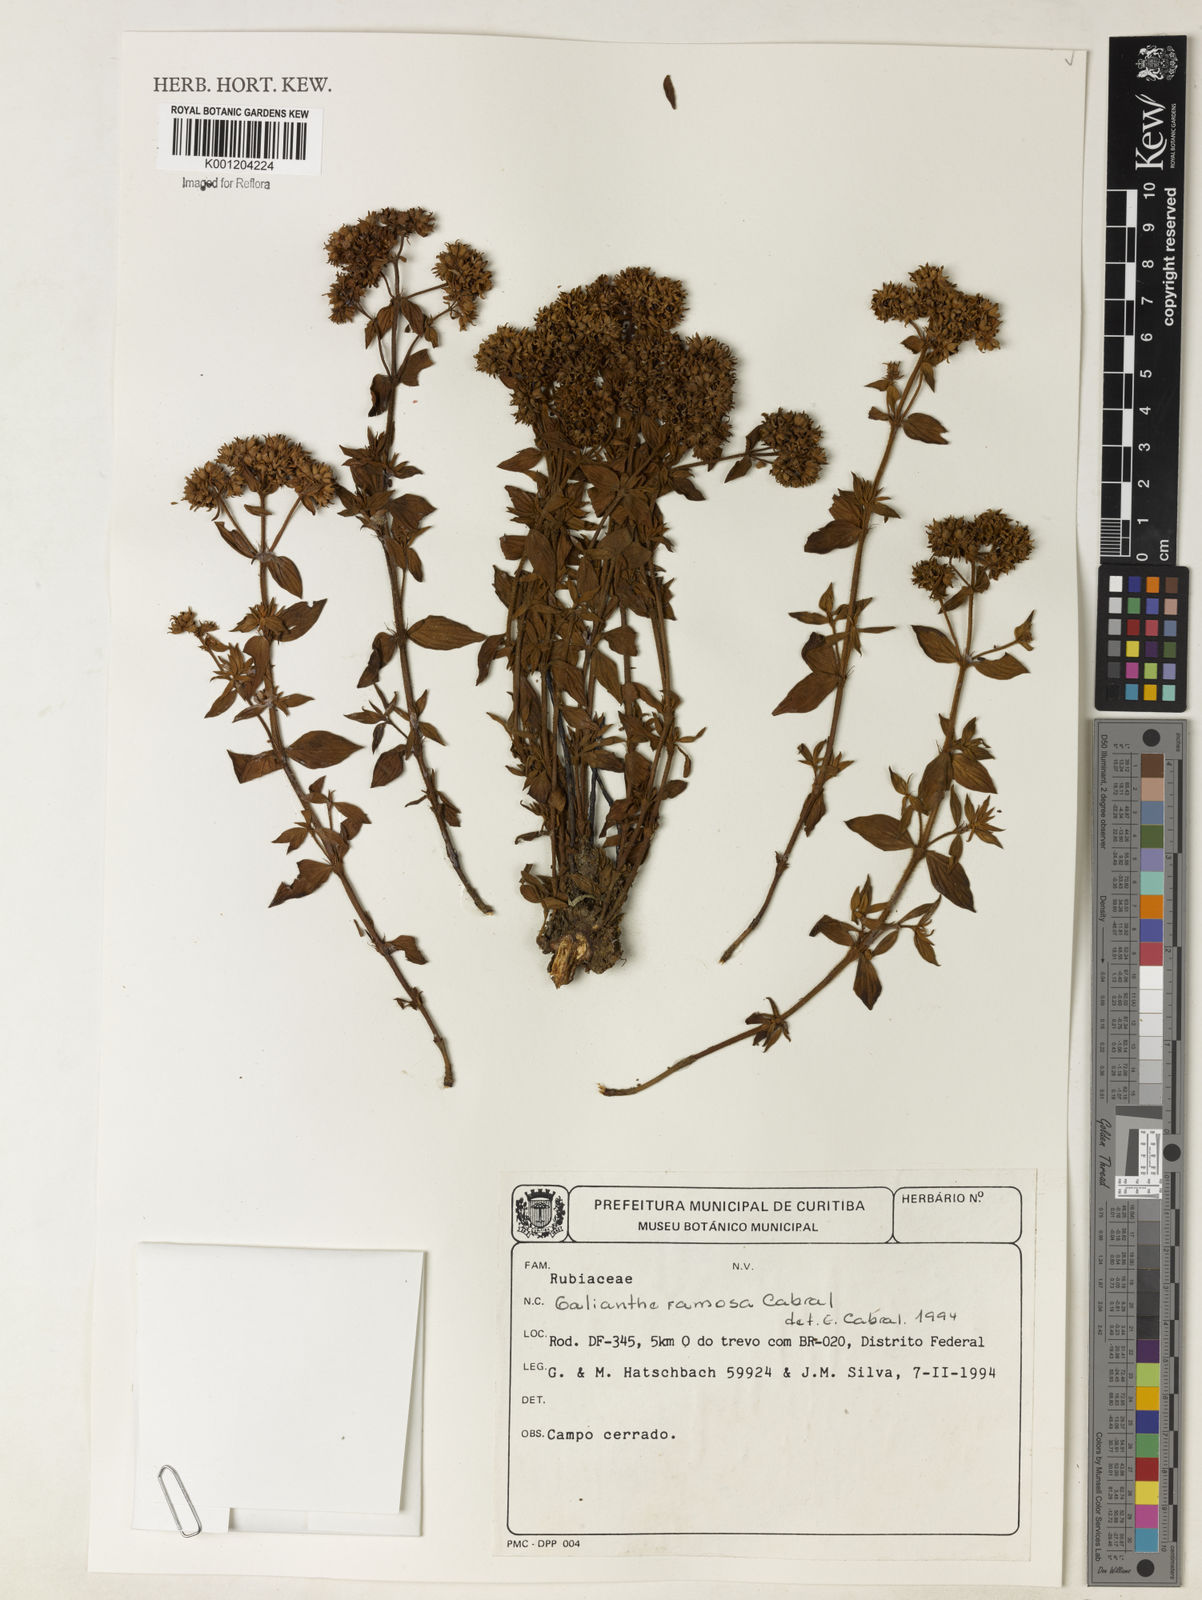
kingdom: Plantae
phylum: Tracheophyta
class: Magnoliopsida
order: Gentianales
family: Rubiaceae
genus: Galianthe
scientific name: Galianthe ramosa
